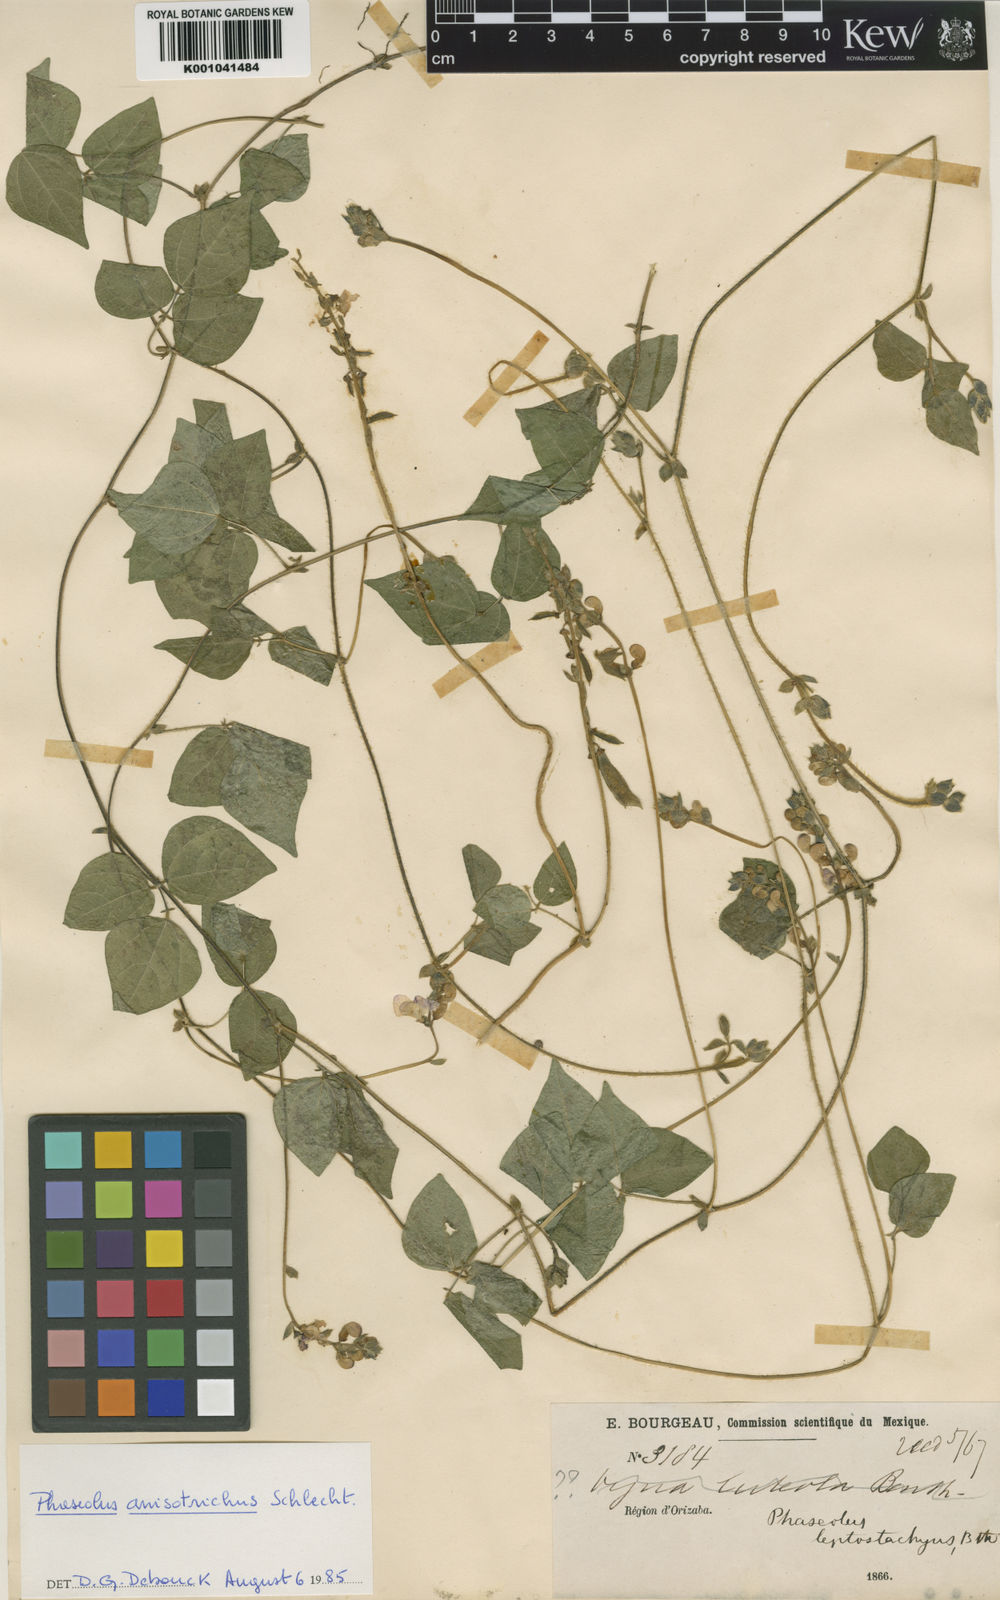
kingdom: Plantae
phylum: Tracheophyta
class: Magnoliopsida
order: Fabales
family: Fabaceae
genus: Phaseolus
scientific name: Phaseolus
